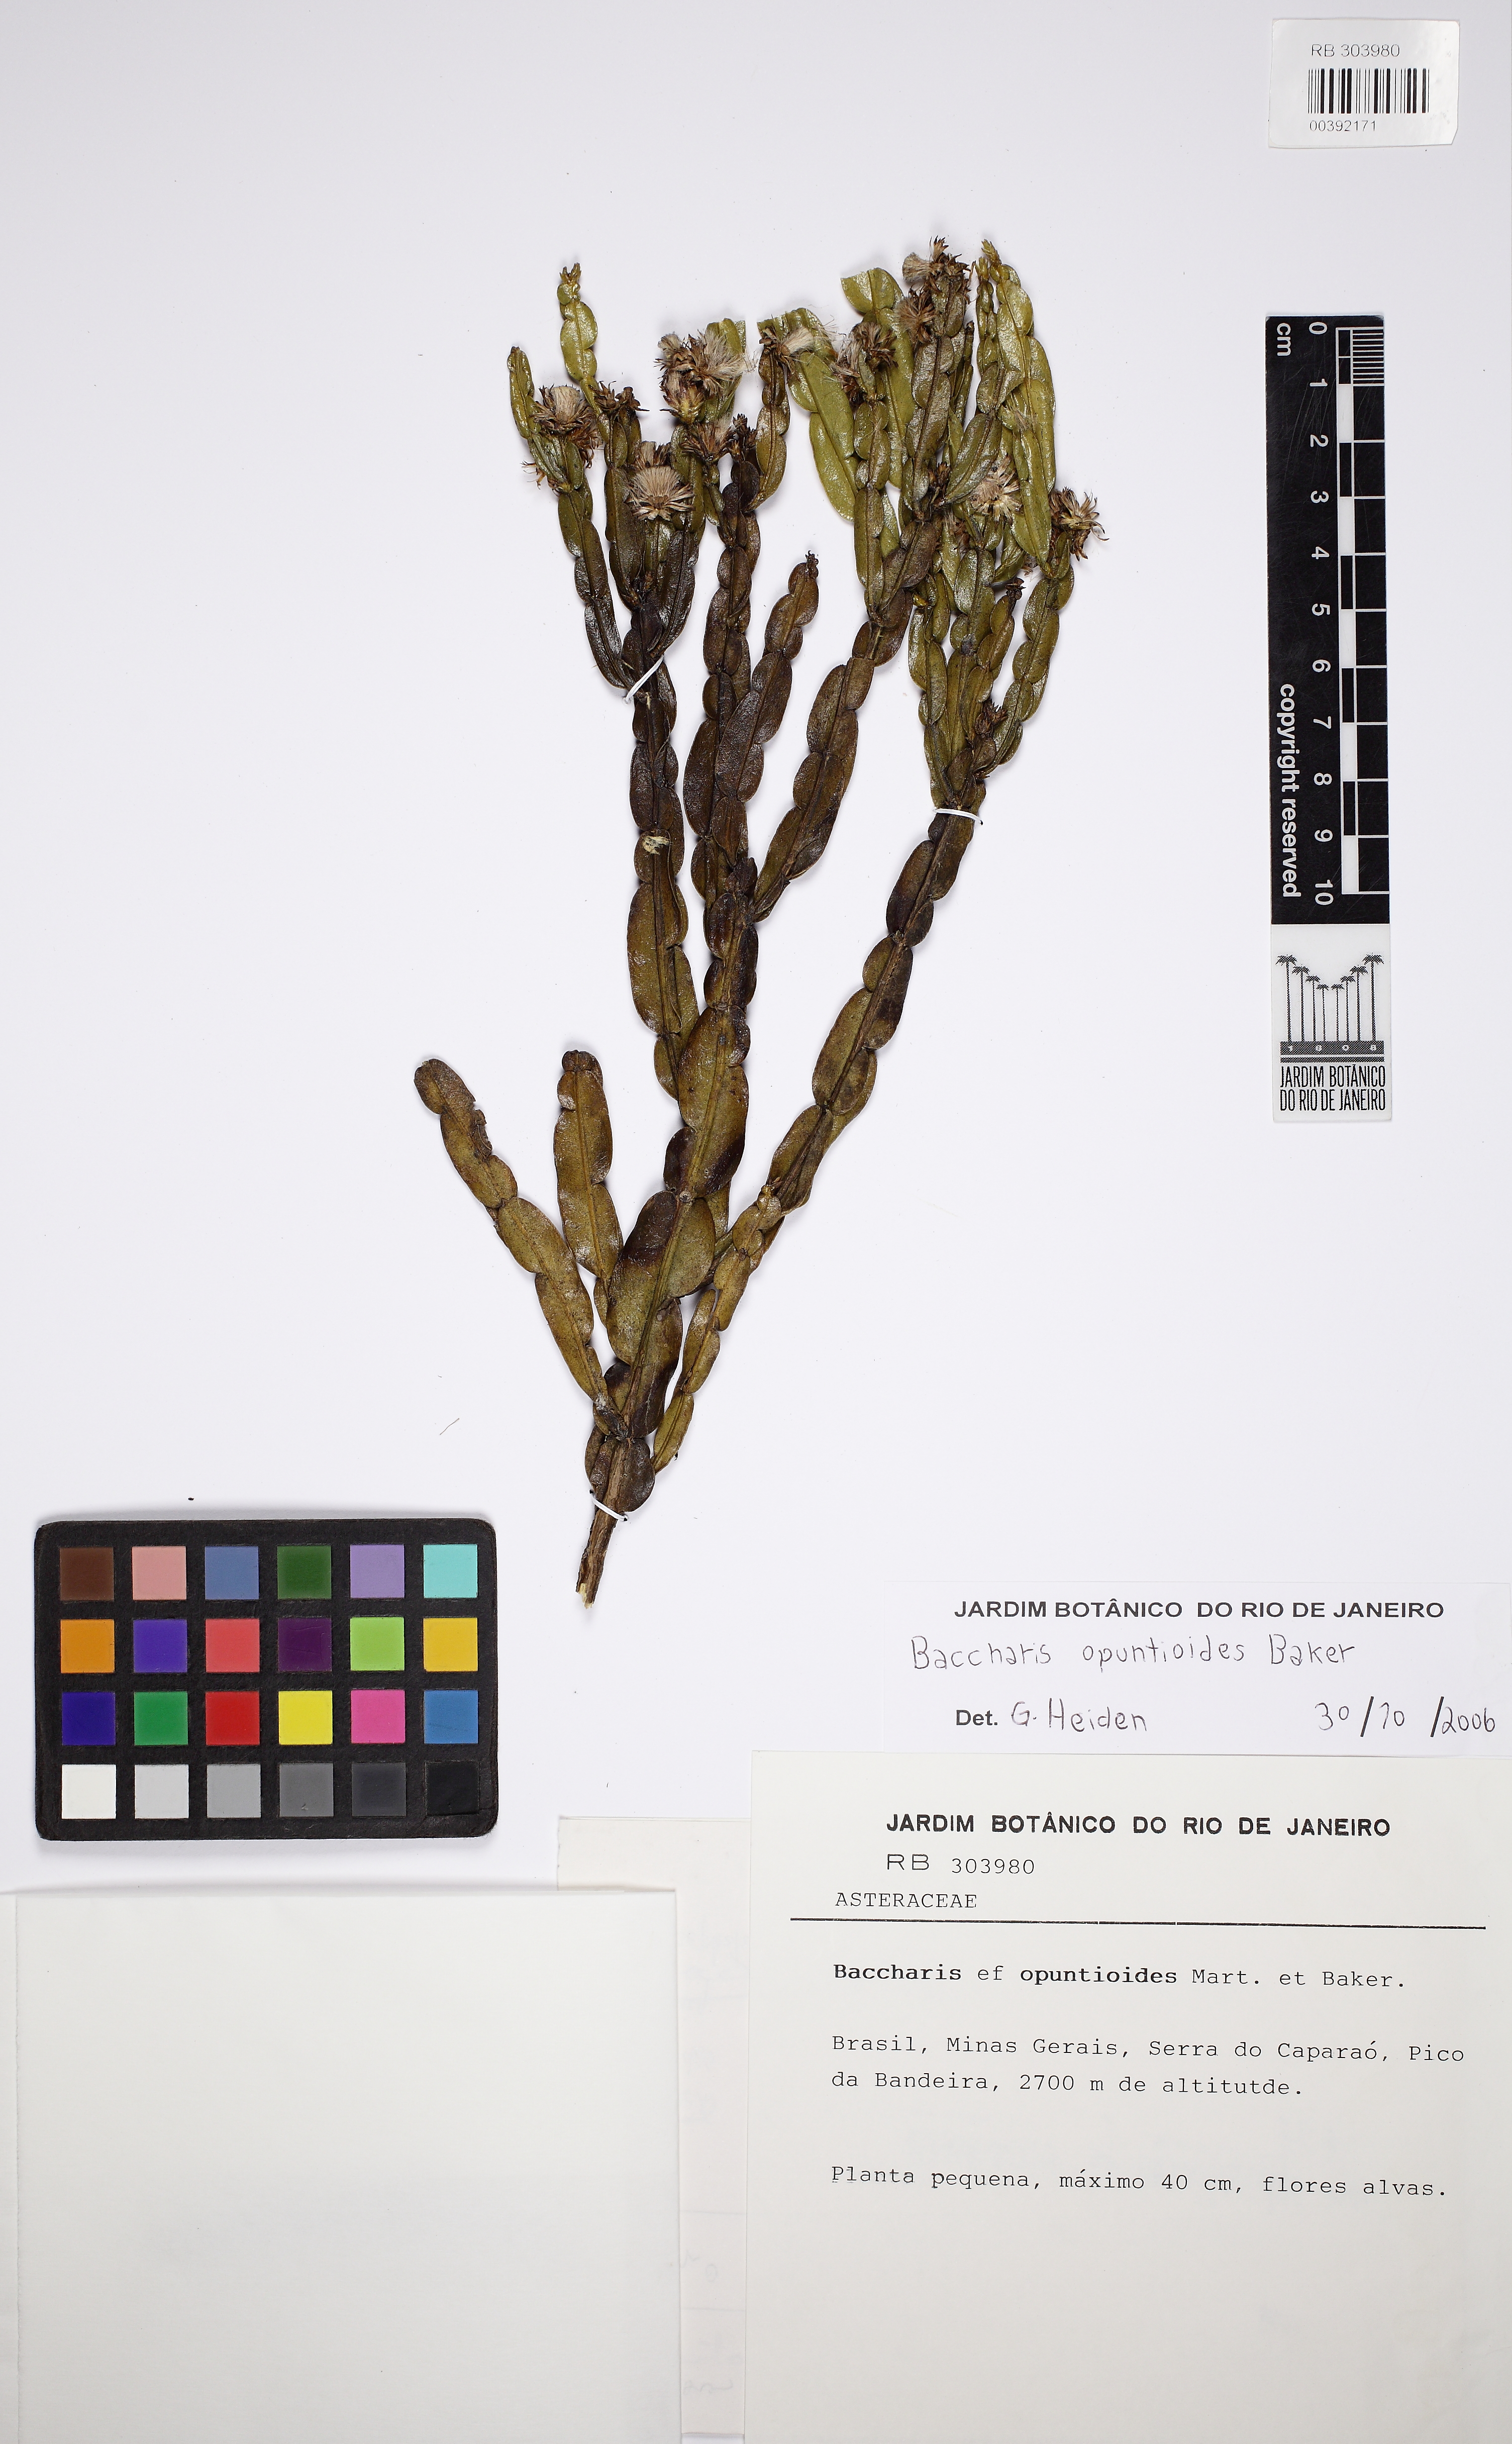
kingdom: Plantae
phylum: Tracheophyta
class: Magnoliopsida
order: Asterales
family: Asteraceae
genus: Baccharis
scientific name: Baccharis opuntioides
